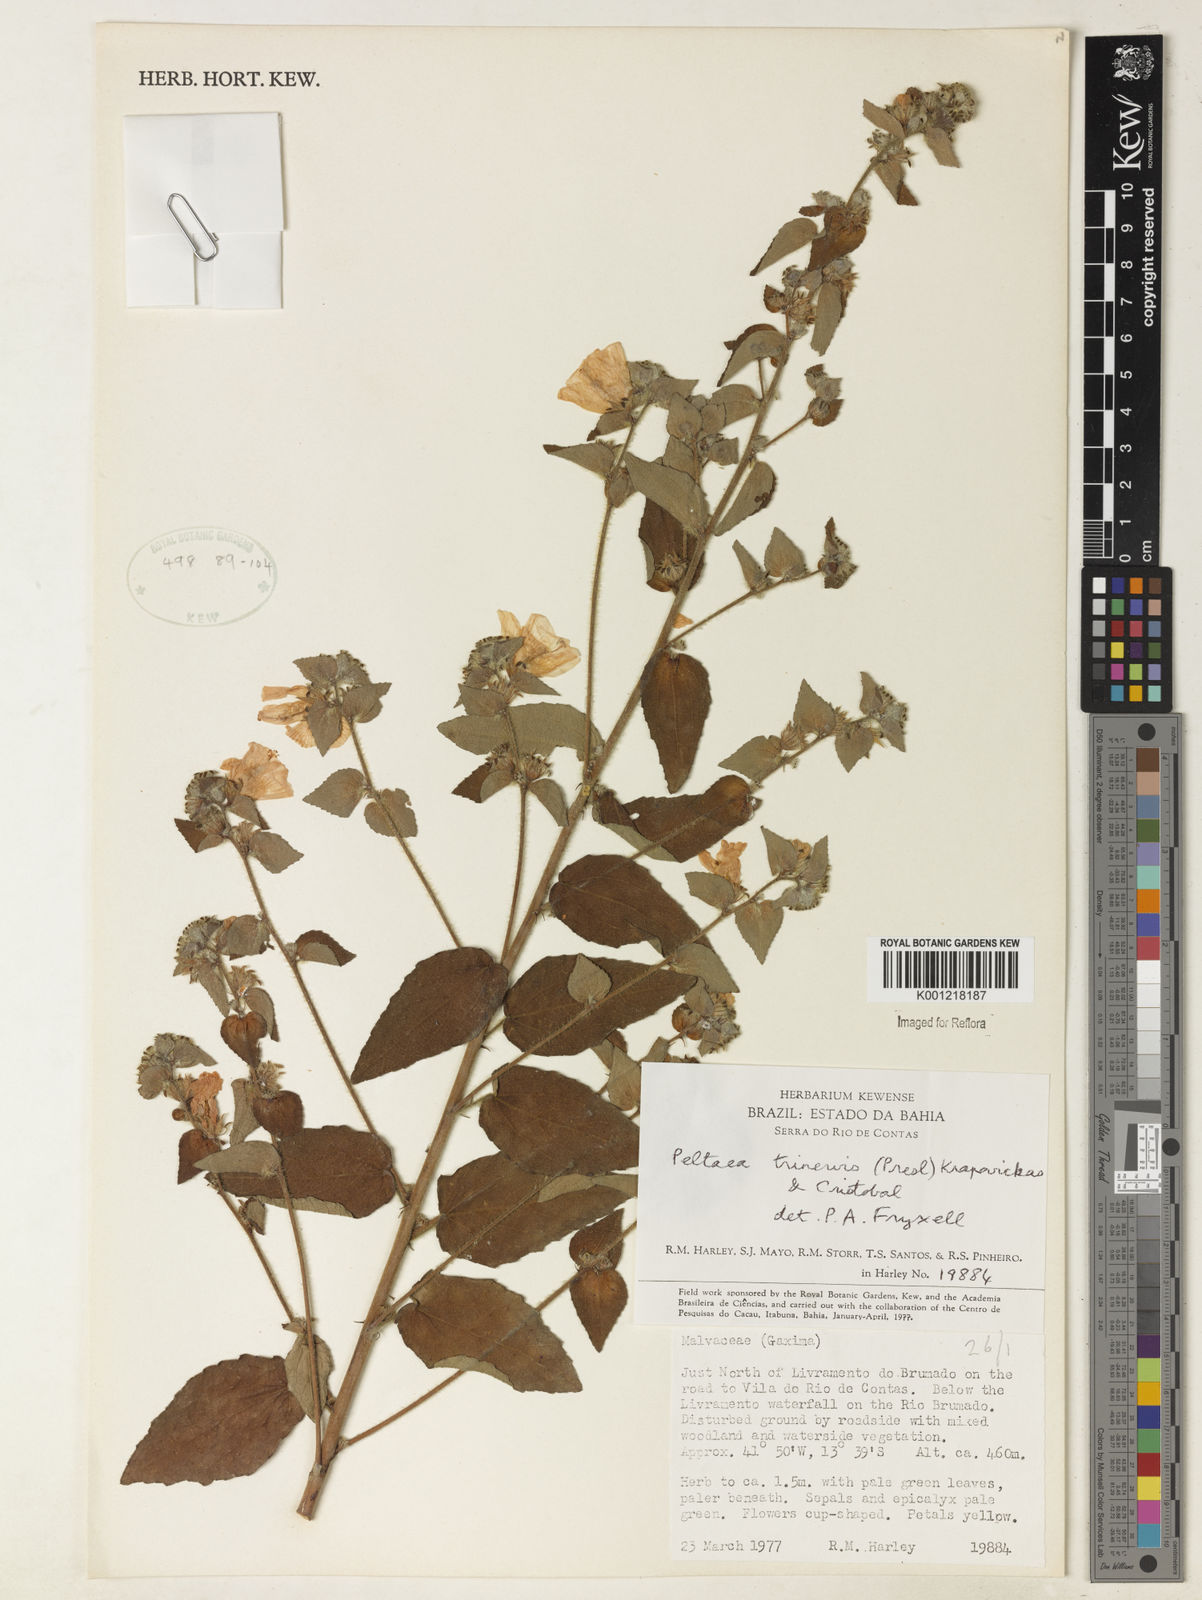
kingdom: Plantae
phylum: Tracheophyta
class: Magnoliopsida
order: Malvales
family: Malvaceae
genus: Peltaea
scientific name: Peltaea
